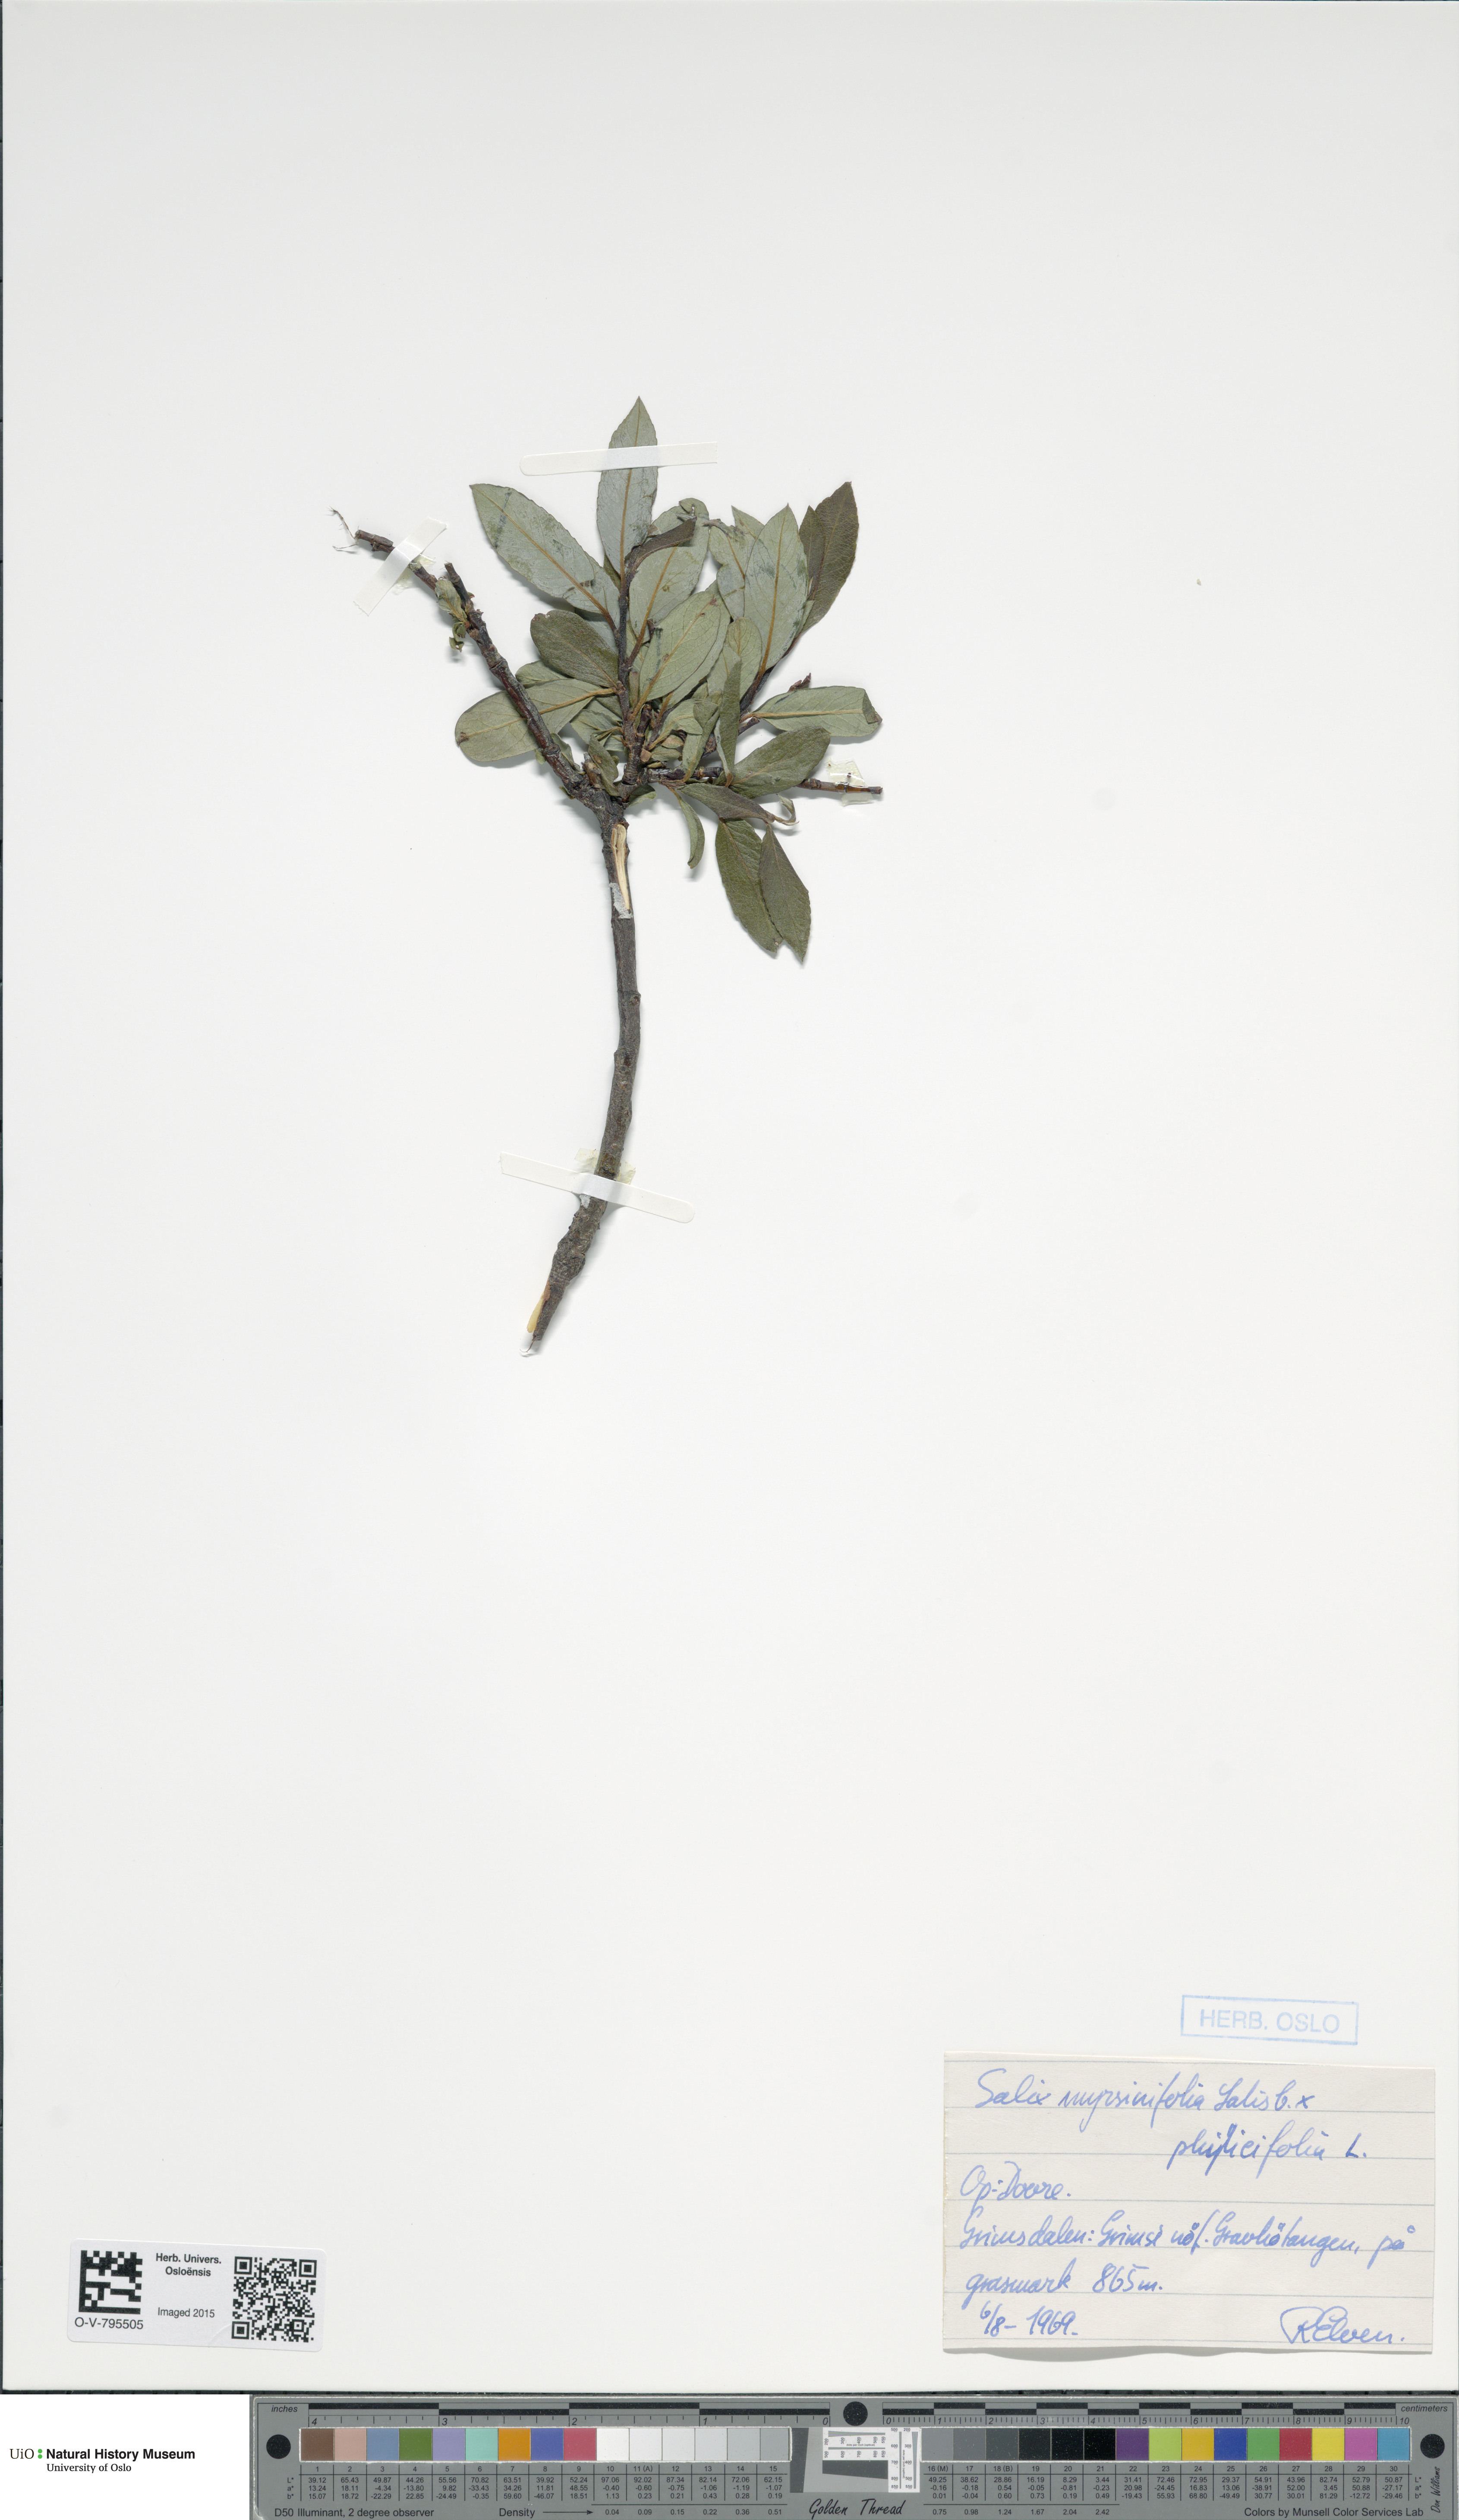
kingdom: Plantae
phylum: Tracheophyta
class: Magnoliopsida
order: Malpighiales
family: Salicaceae
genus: Salix
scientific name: Salix
